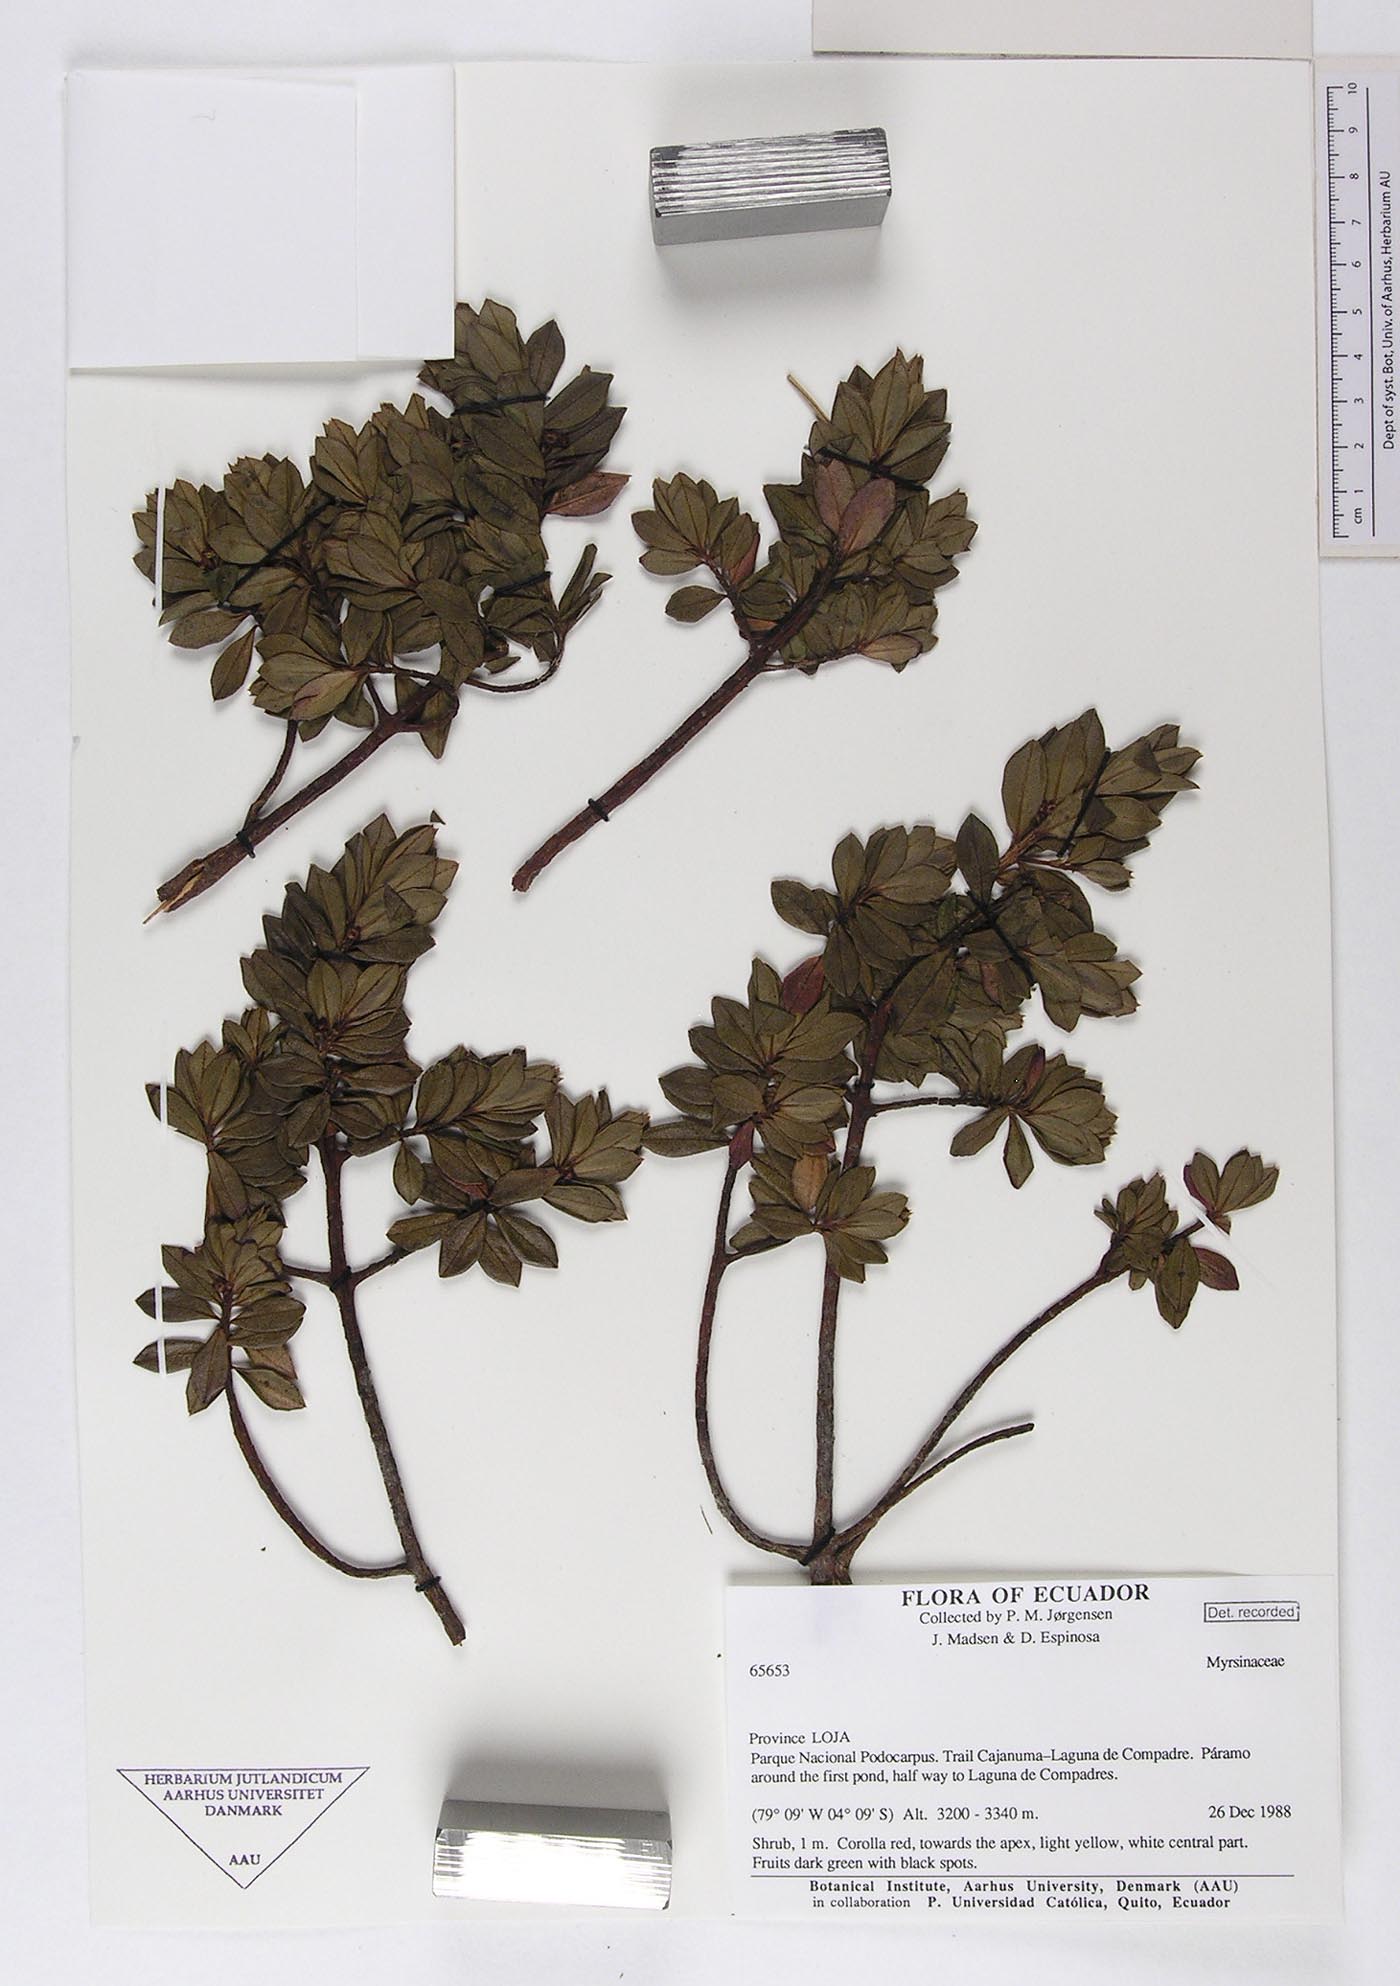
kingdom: Plantae
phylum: Tracheophyta
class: Magnoliopsida
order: Ericales
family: Primulaceae
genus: Cybianthus
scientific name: Cybianthus lineatus
